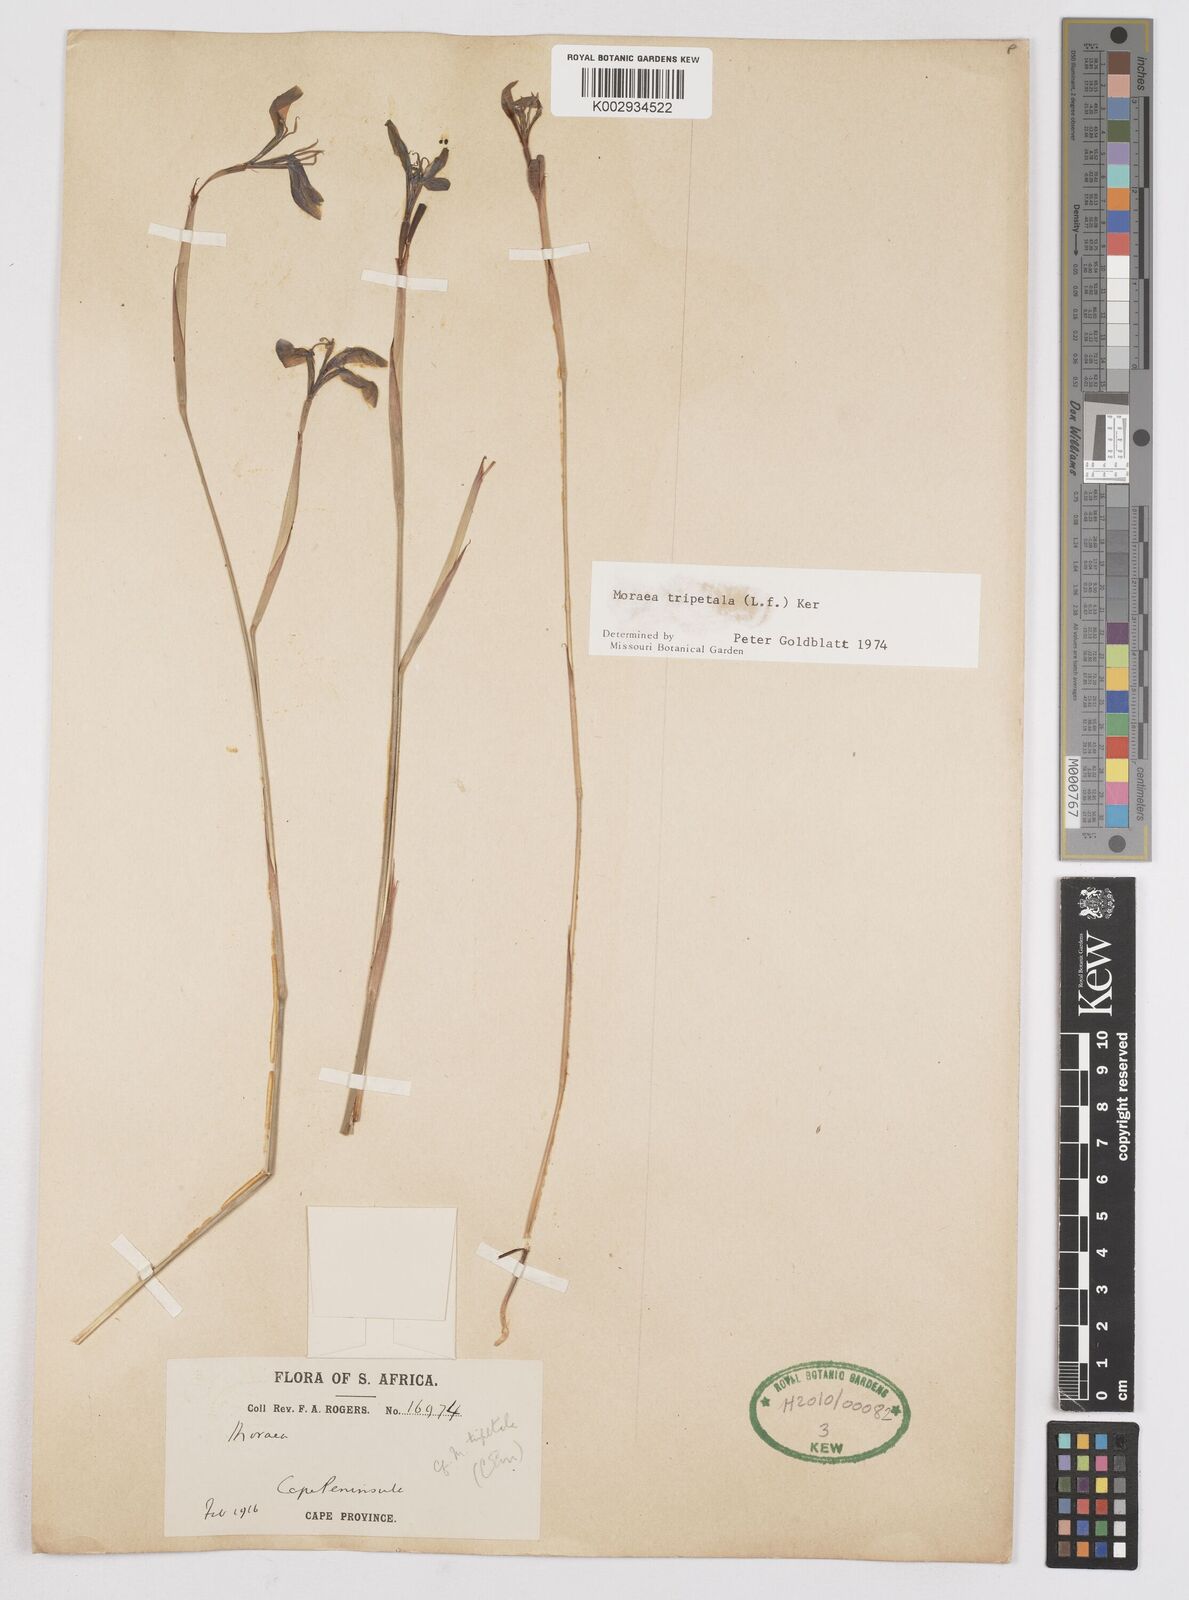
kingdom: Plantae
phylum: Tracheophyta
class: Liliopsida
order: Asparagales
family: Iridaceae
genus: Moraea
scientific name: Moraea tripetala
